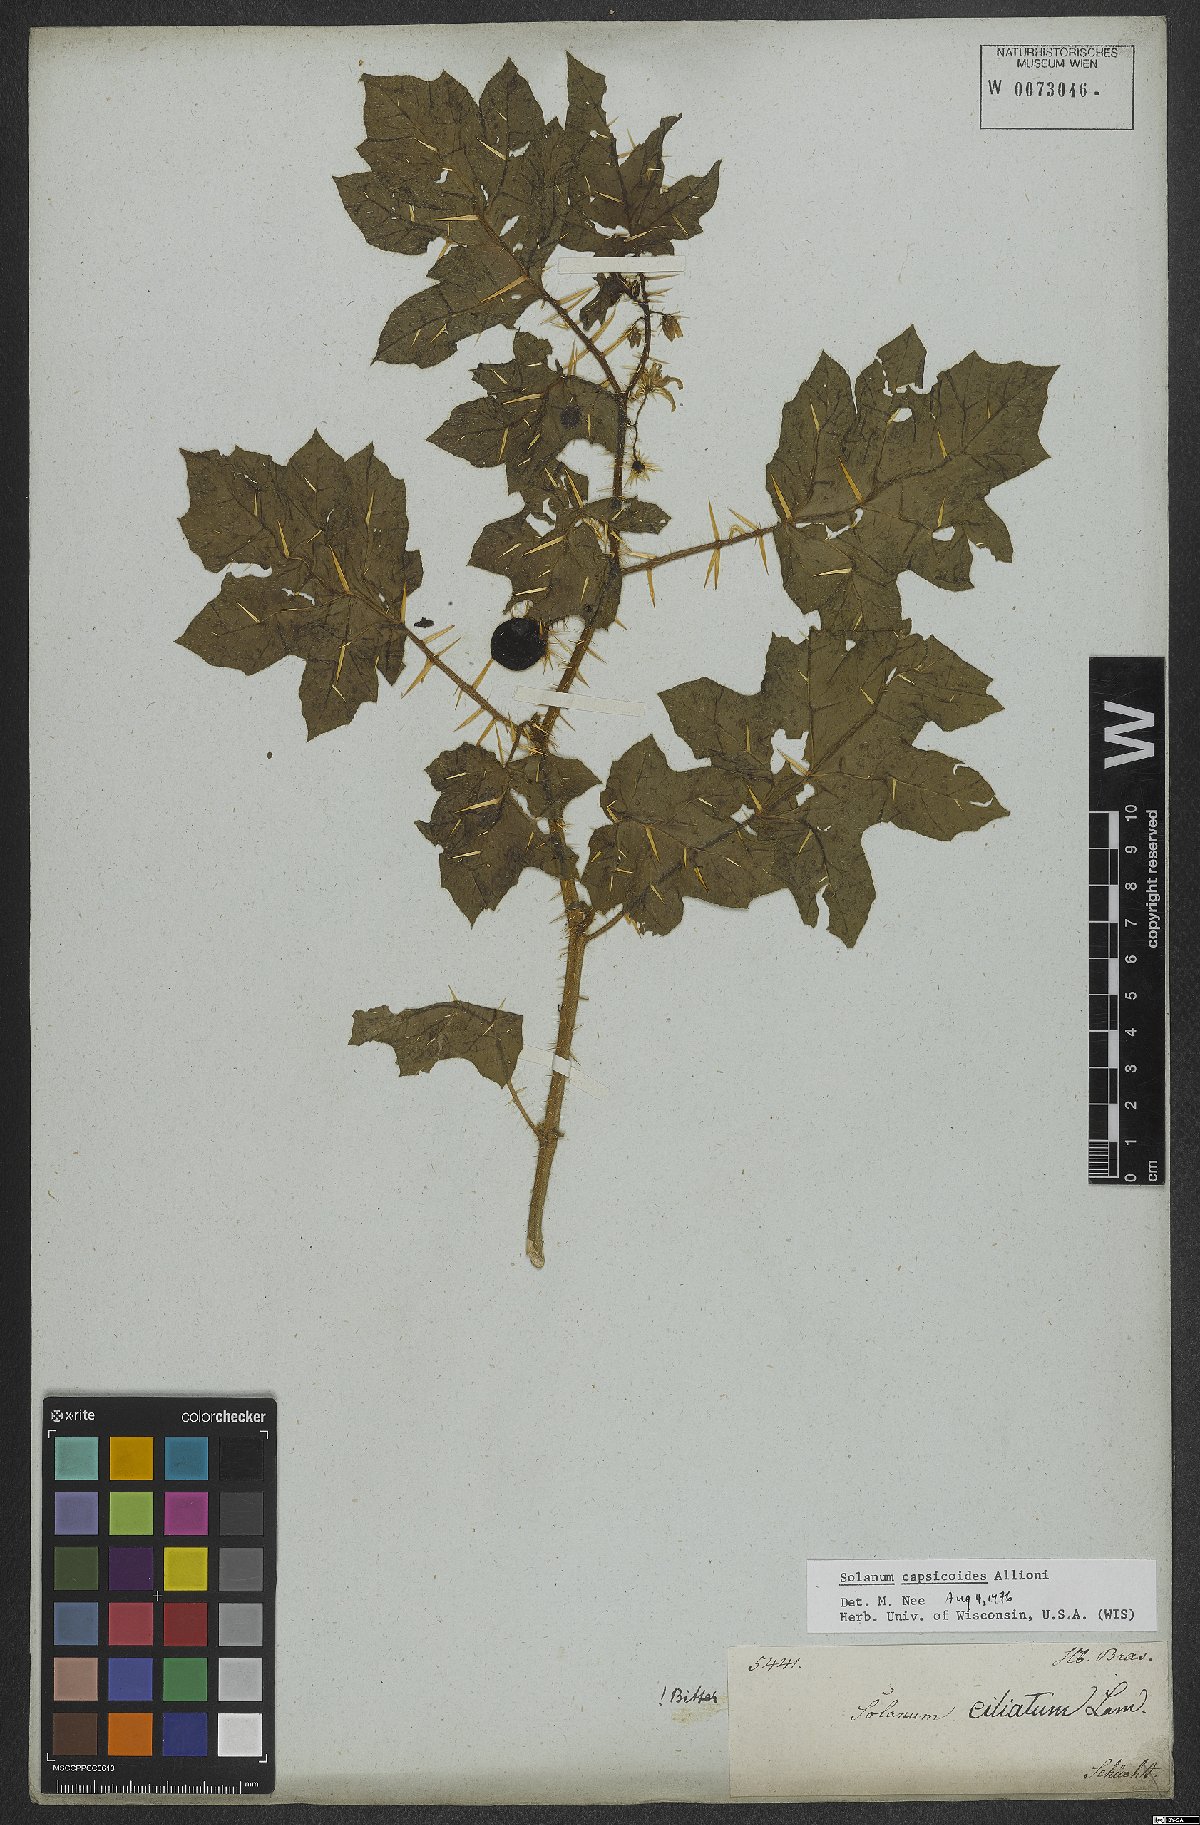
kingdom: Plantae
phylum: Tracheophyta
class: Magnoliopsida
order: Solanales
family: Solanaceae
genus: Solanum
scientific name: Solanum capsicoides
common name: Cockroach berry
